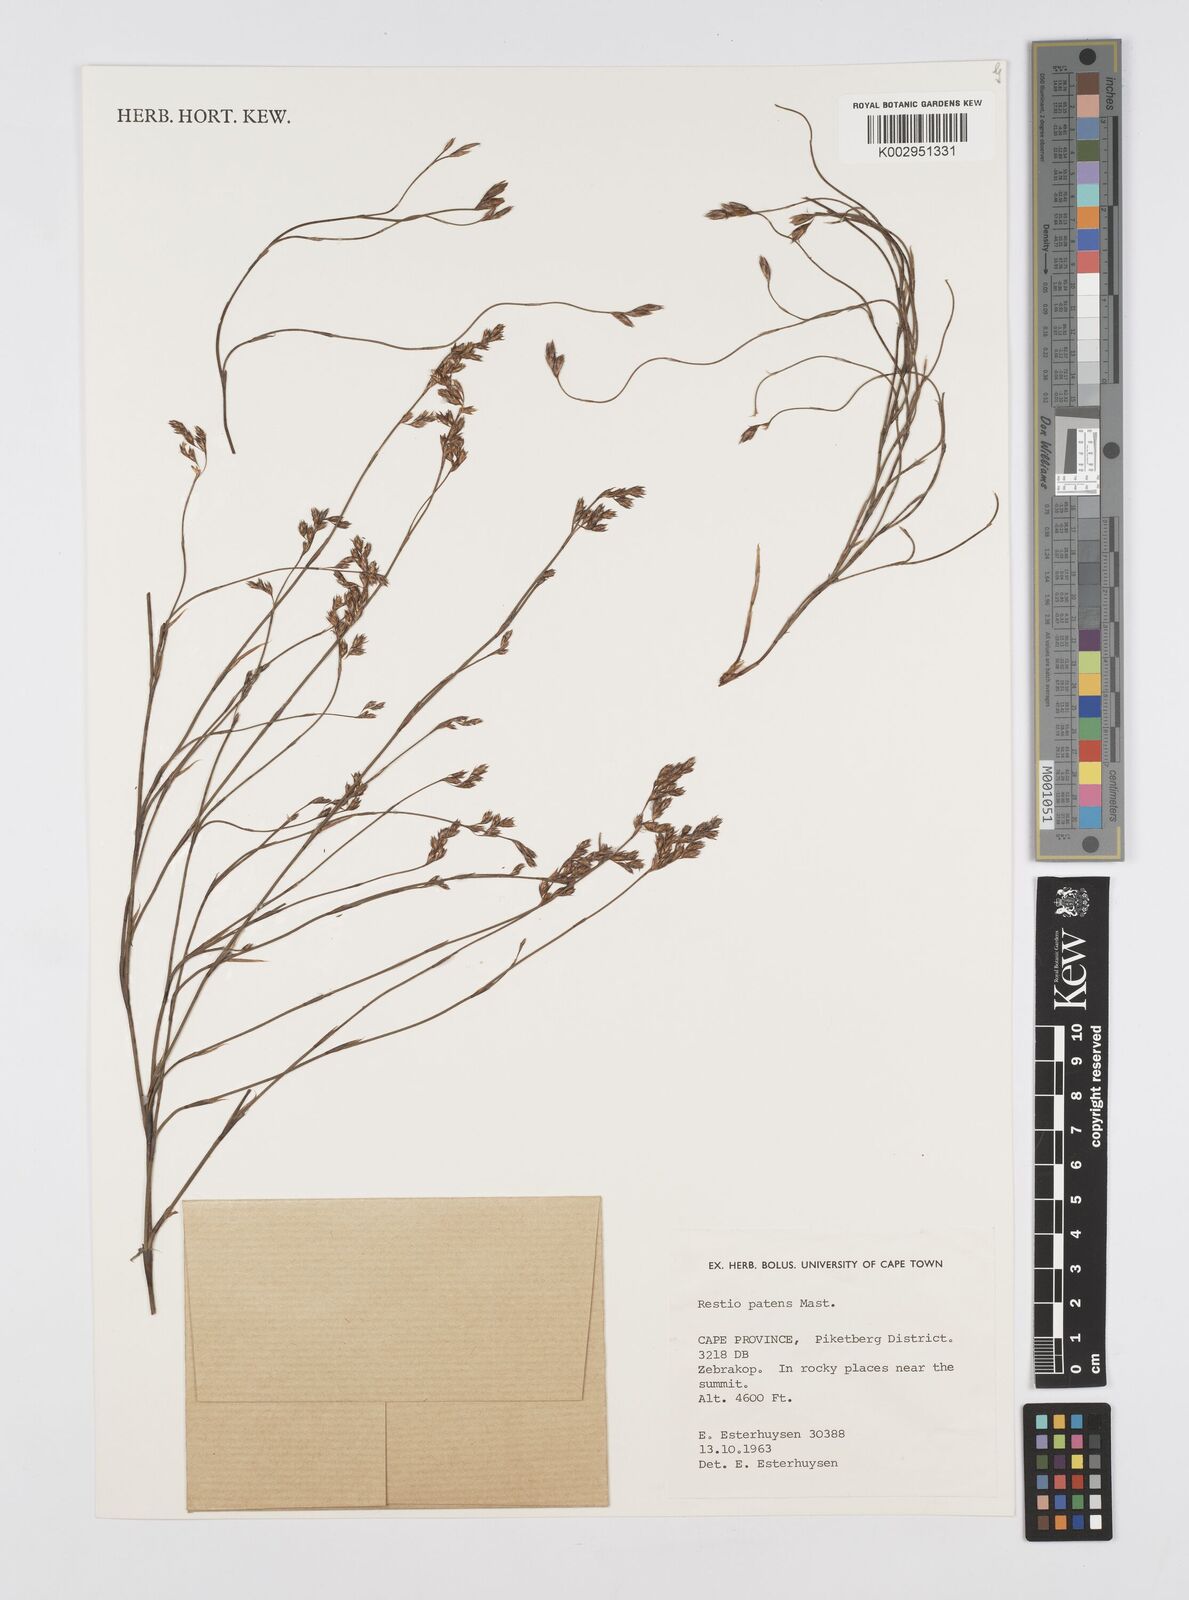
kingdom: Plantae
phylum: Tracheophyta
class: Liliopsida
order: Poales
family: Restionaceae
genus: Restio
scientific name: Restio patens
